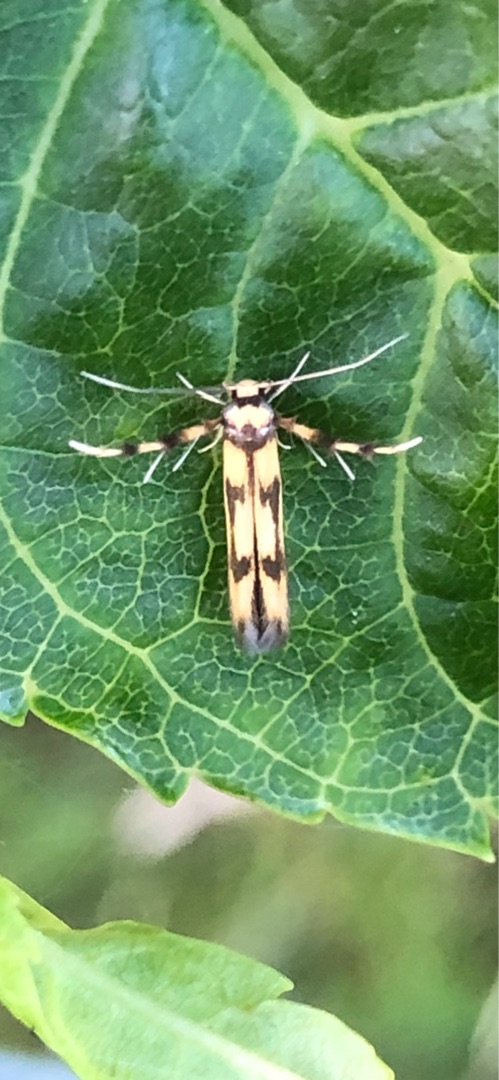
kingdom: Animalia
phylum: Arthropoda
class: Insecta
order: Lepidoptera
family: Stathmopodidae
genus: Stathmopoda
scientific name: Stathmopoda pedella
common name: Strittende ellemøl
